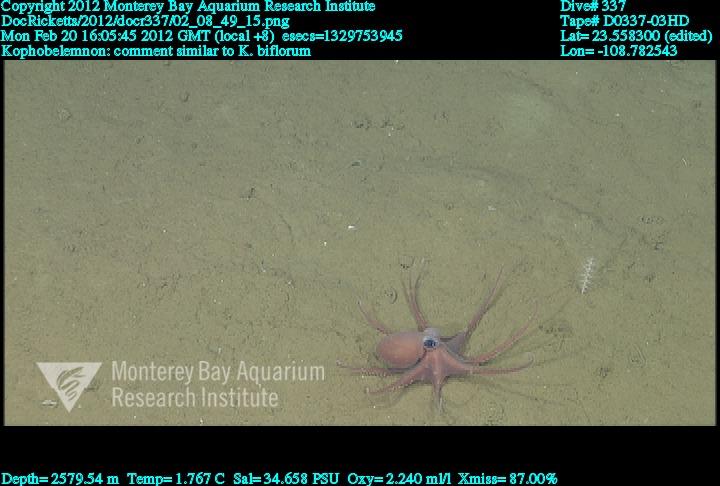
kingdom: Animalia
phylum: Cnidaria
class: Anthozoa
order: Scleralcyonacea
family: Kophobelemnidae
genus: Kophobelemnon
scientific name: Kophobelemnon
